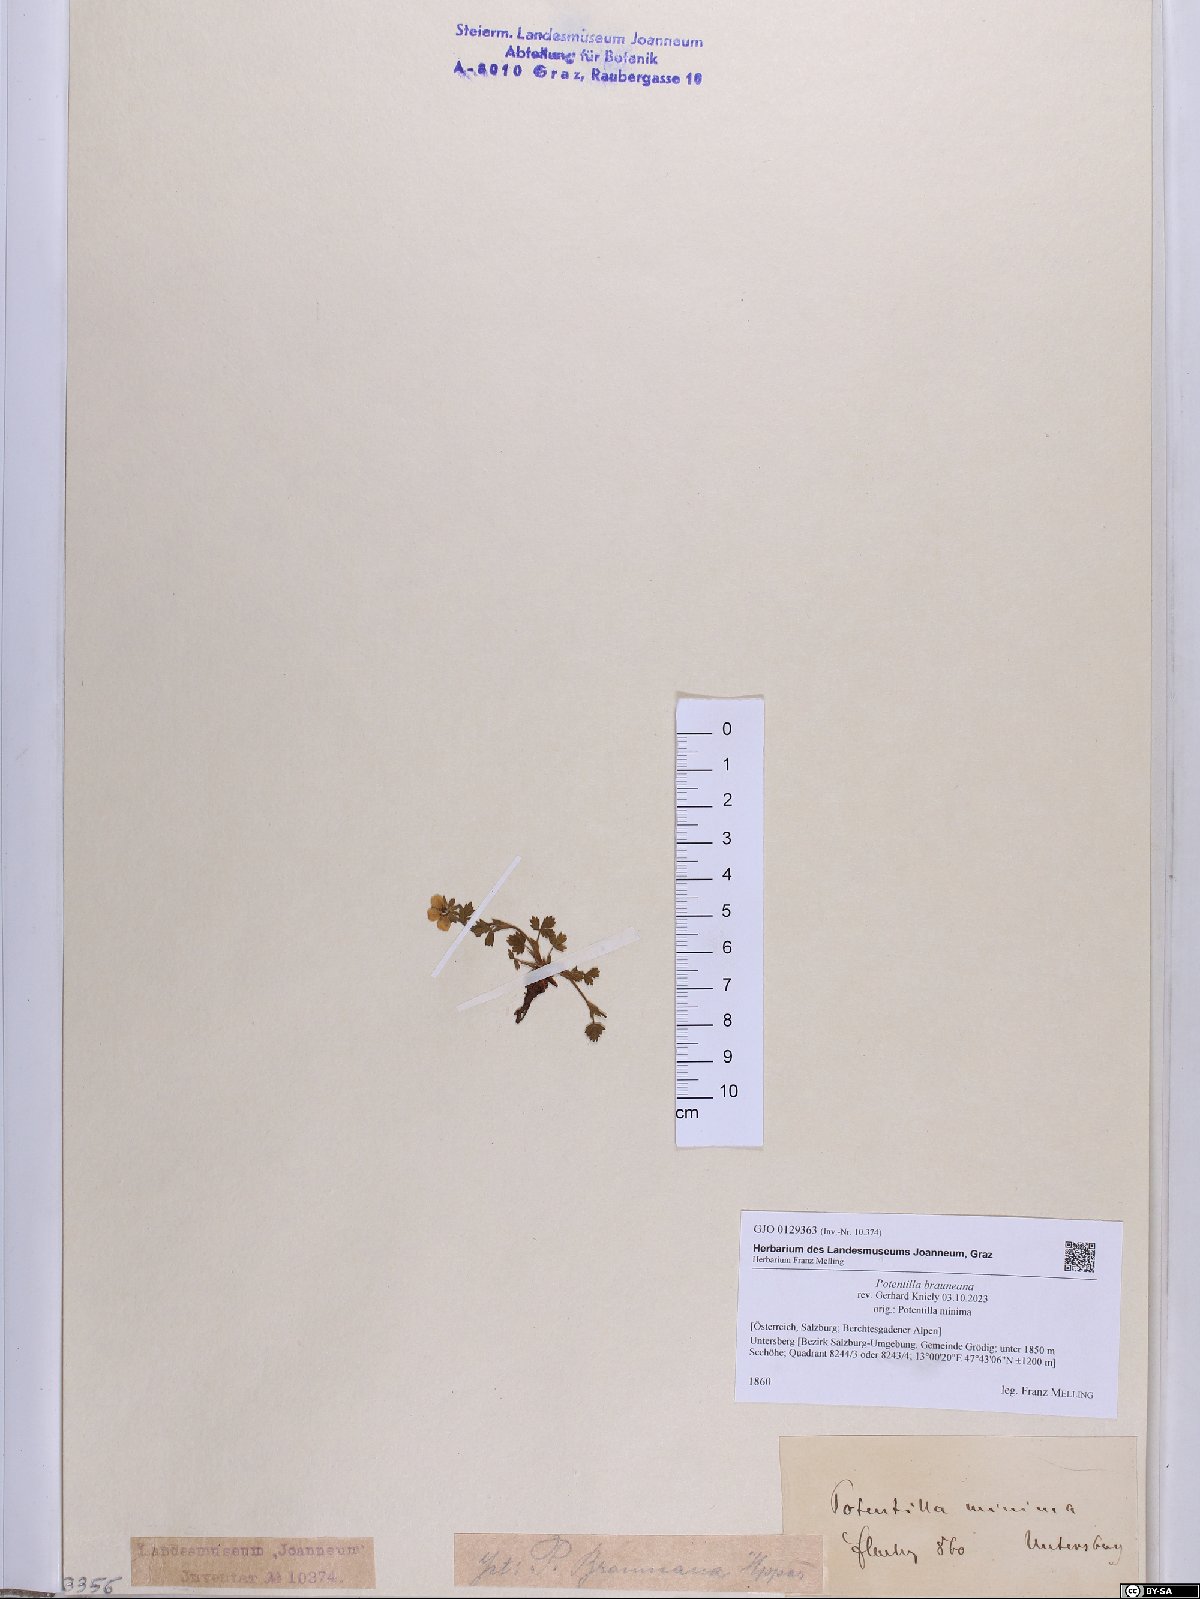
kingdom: Plantae
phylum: Tracheophyta
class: Magnoliopsida
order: Rosales
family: Rosaceae
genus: Potentilla
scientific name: Potentilla brauneana
